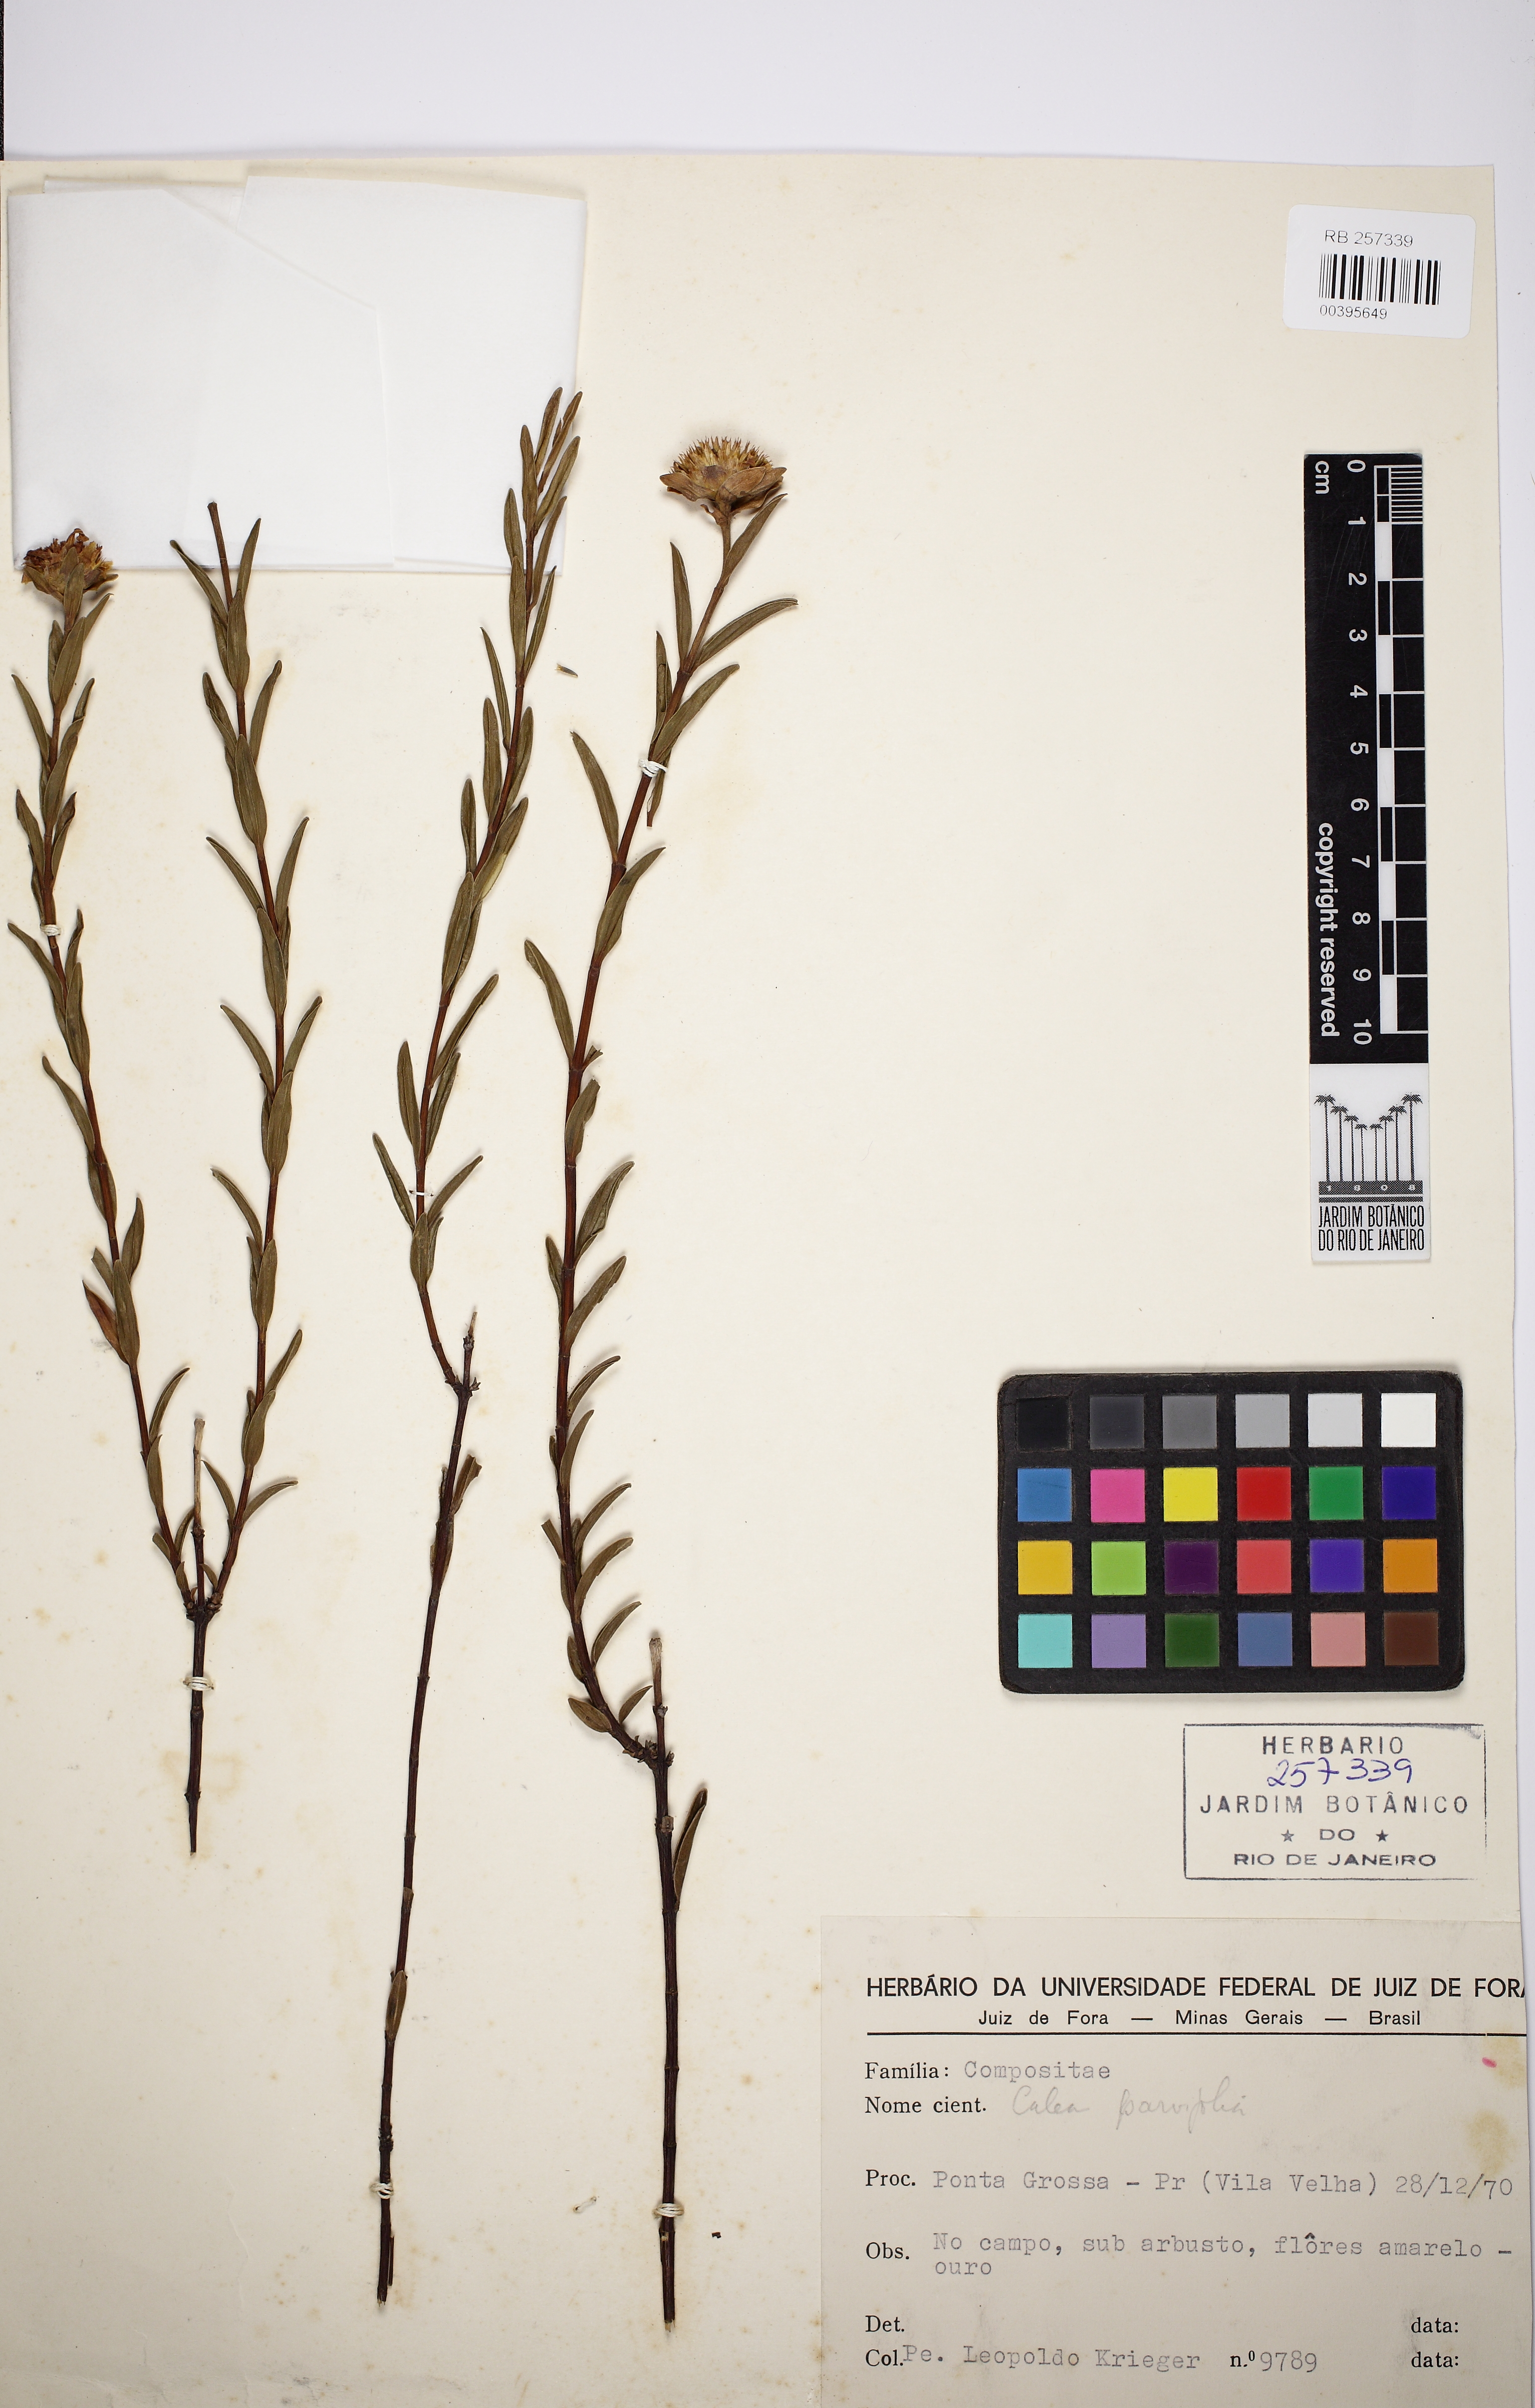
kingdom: Plantae
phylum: Tracheophyta
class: Magnoliopsida
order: Asterales
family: Asteraceae
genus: Calea
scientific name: Calea marginata
